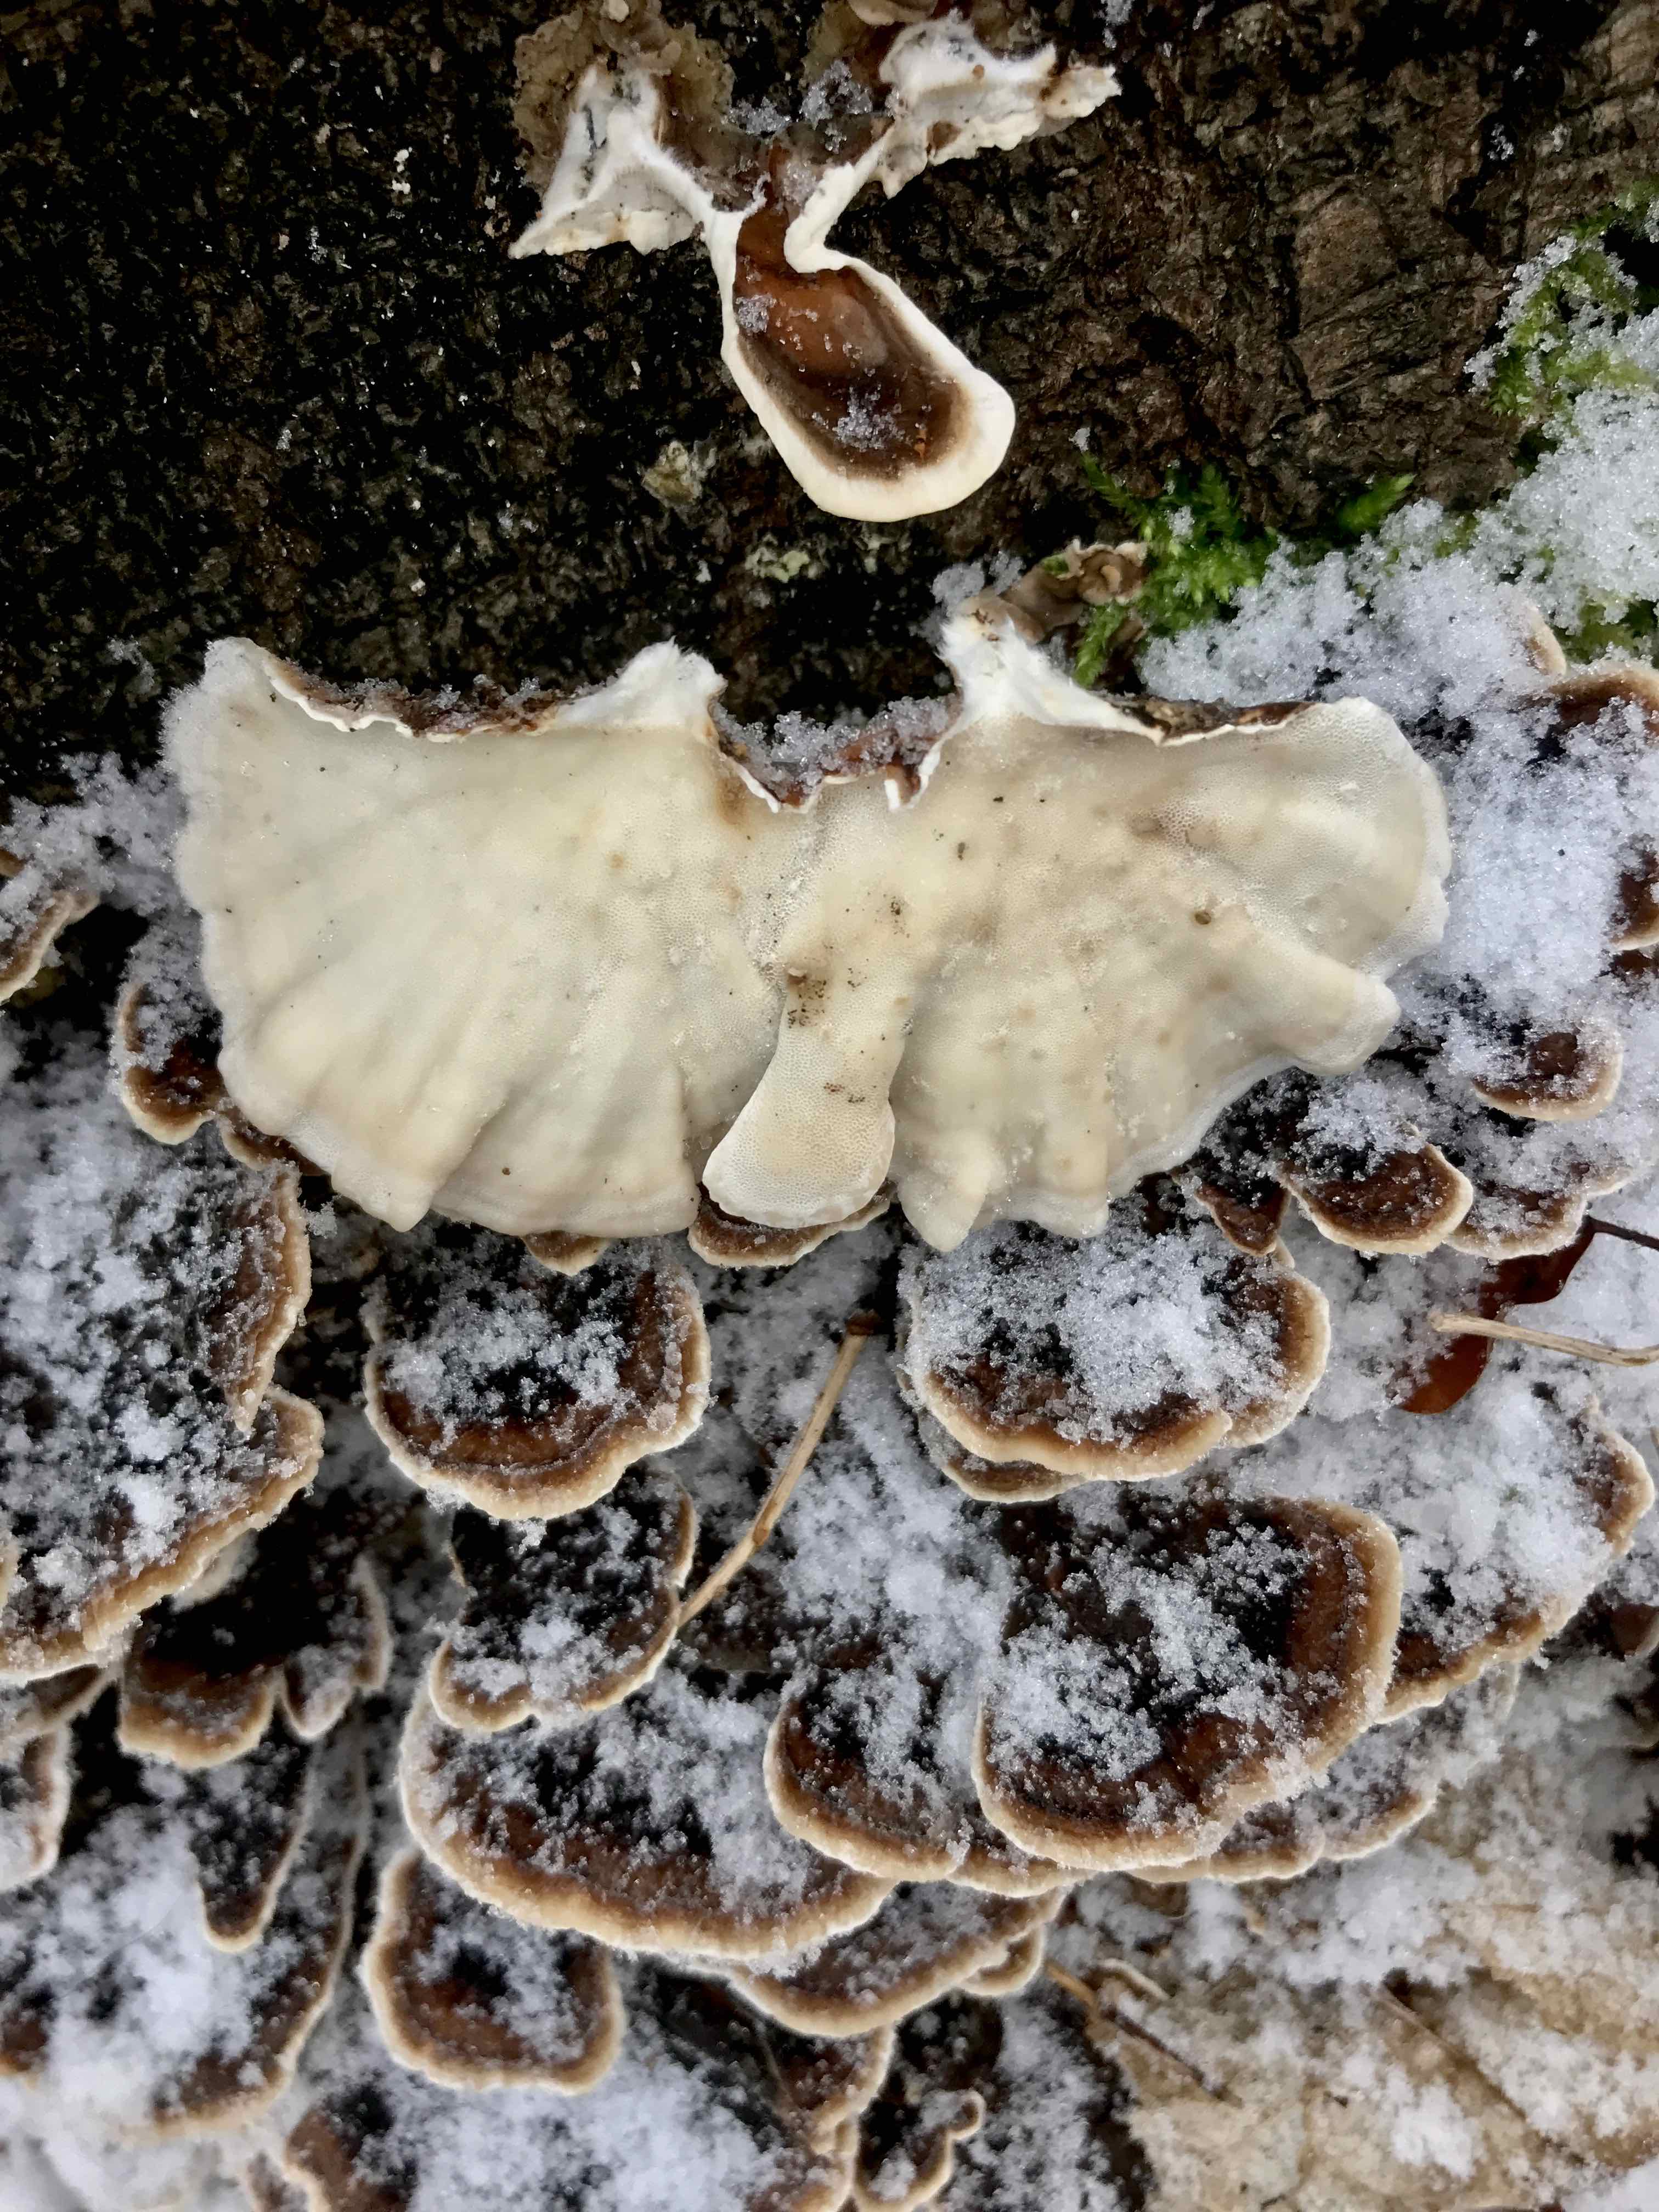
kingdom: Fungi
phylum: Basidiomycota
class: Agaricomycetes
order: Polyporales
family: Polyporaceae
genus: Trametes
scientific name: Trametes versicolor
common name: broget læderporesvamp
